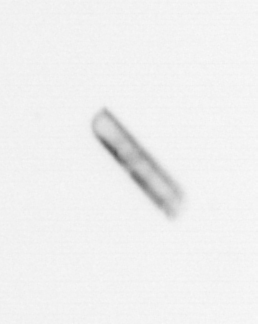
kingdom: Chromista
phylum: Ochrophyta
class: Bacillariophyceae
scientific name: Bacillariophyceae
